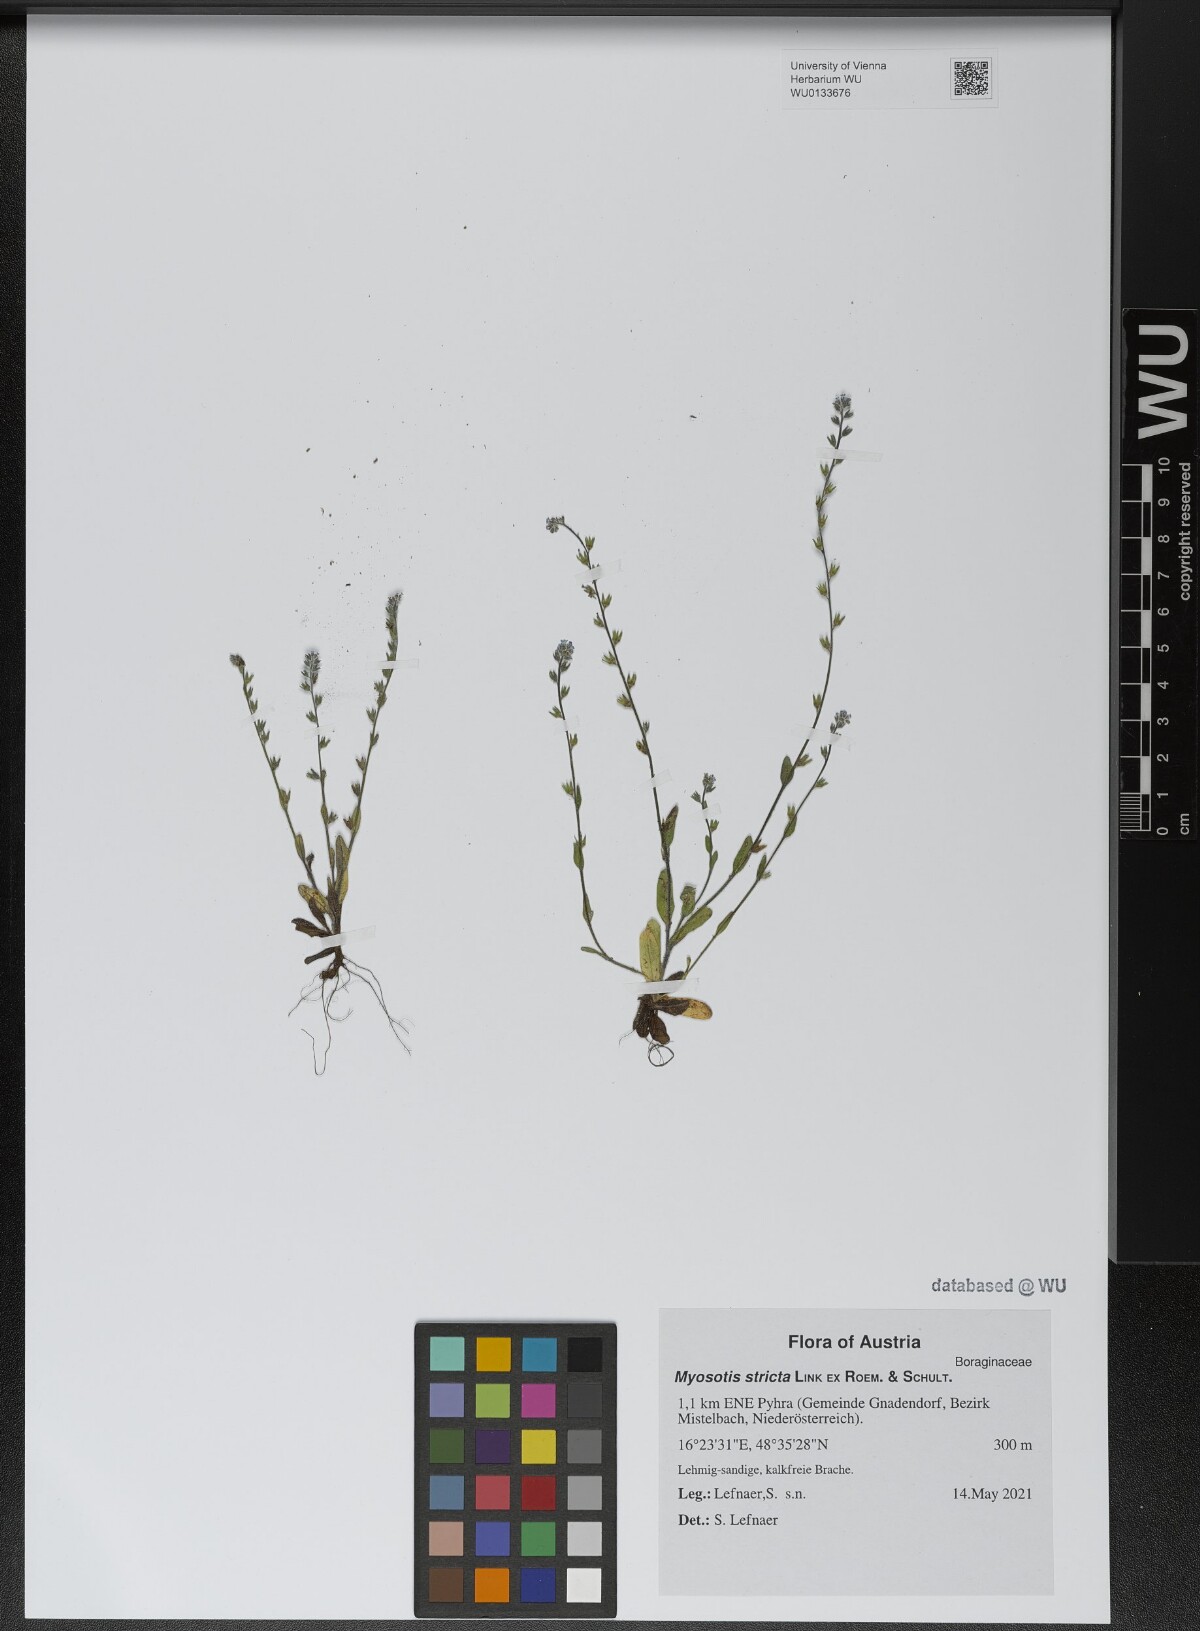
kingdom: Plantae
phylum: Tracheophyta
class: Magnoliopsida
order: Boraginales
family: Boraginaceae
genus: Myosotis
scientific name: Myosotis stricta
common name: Strict forget-me-not
